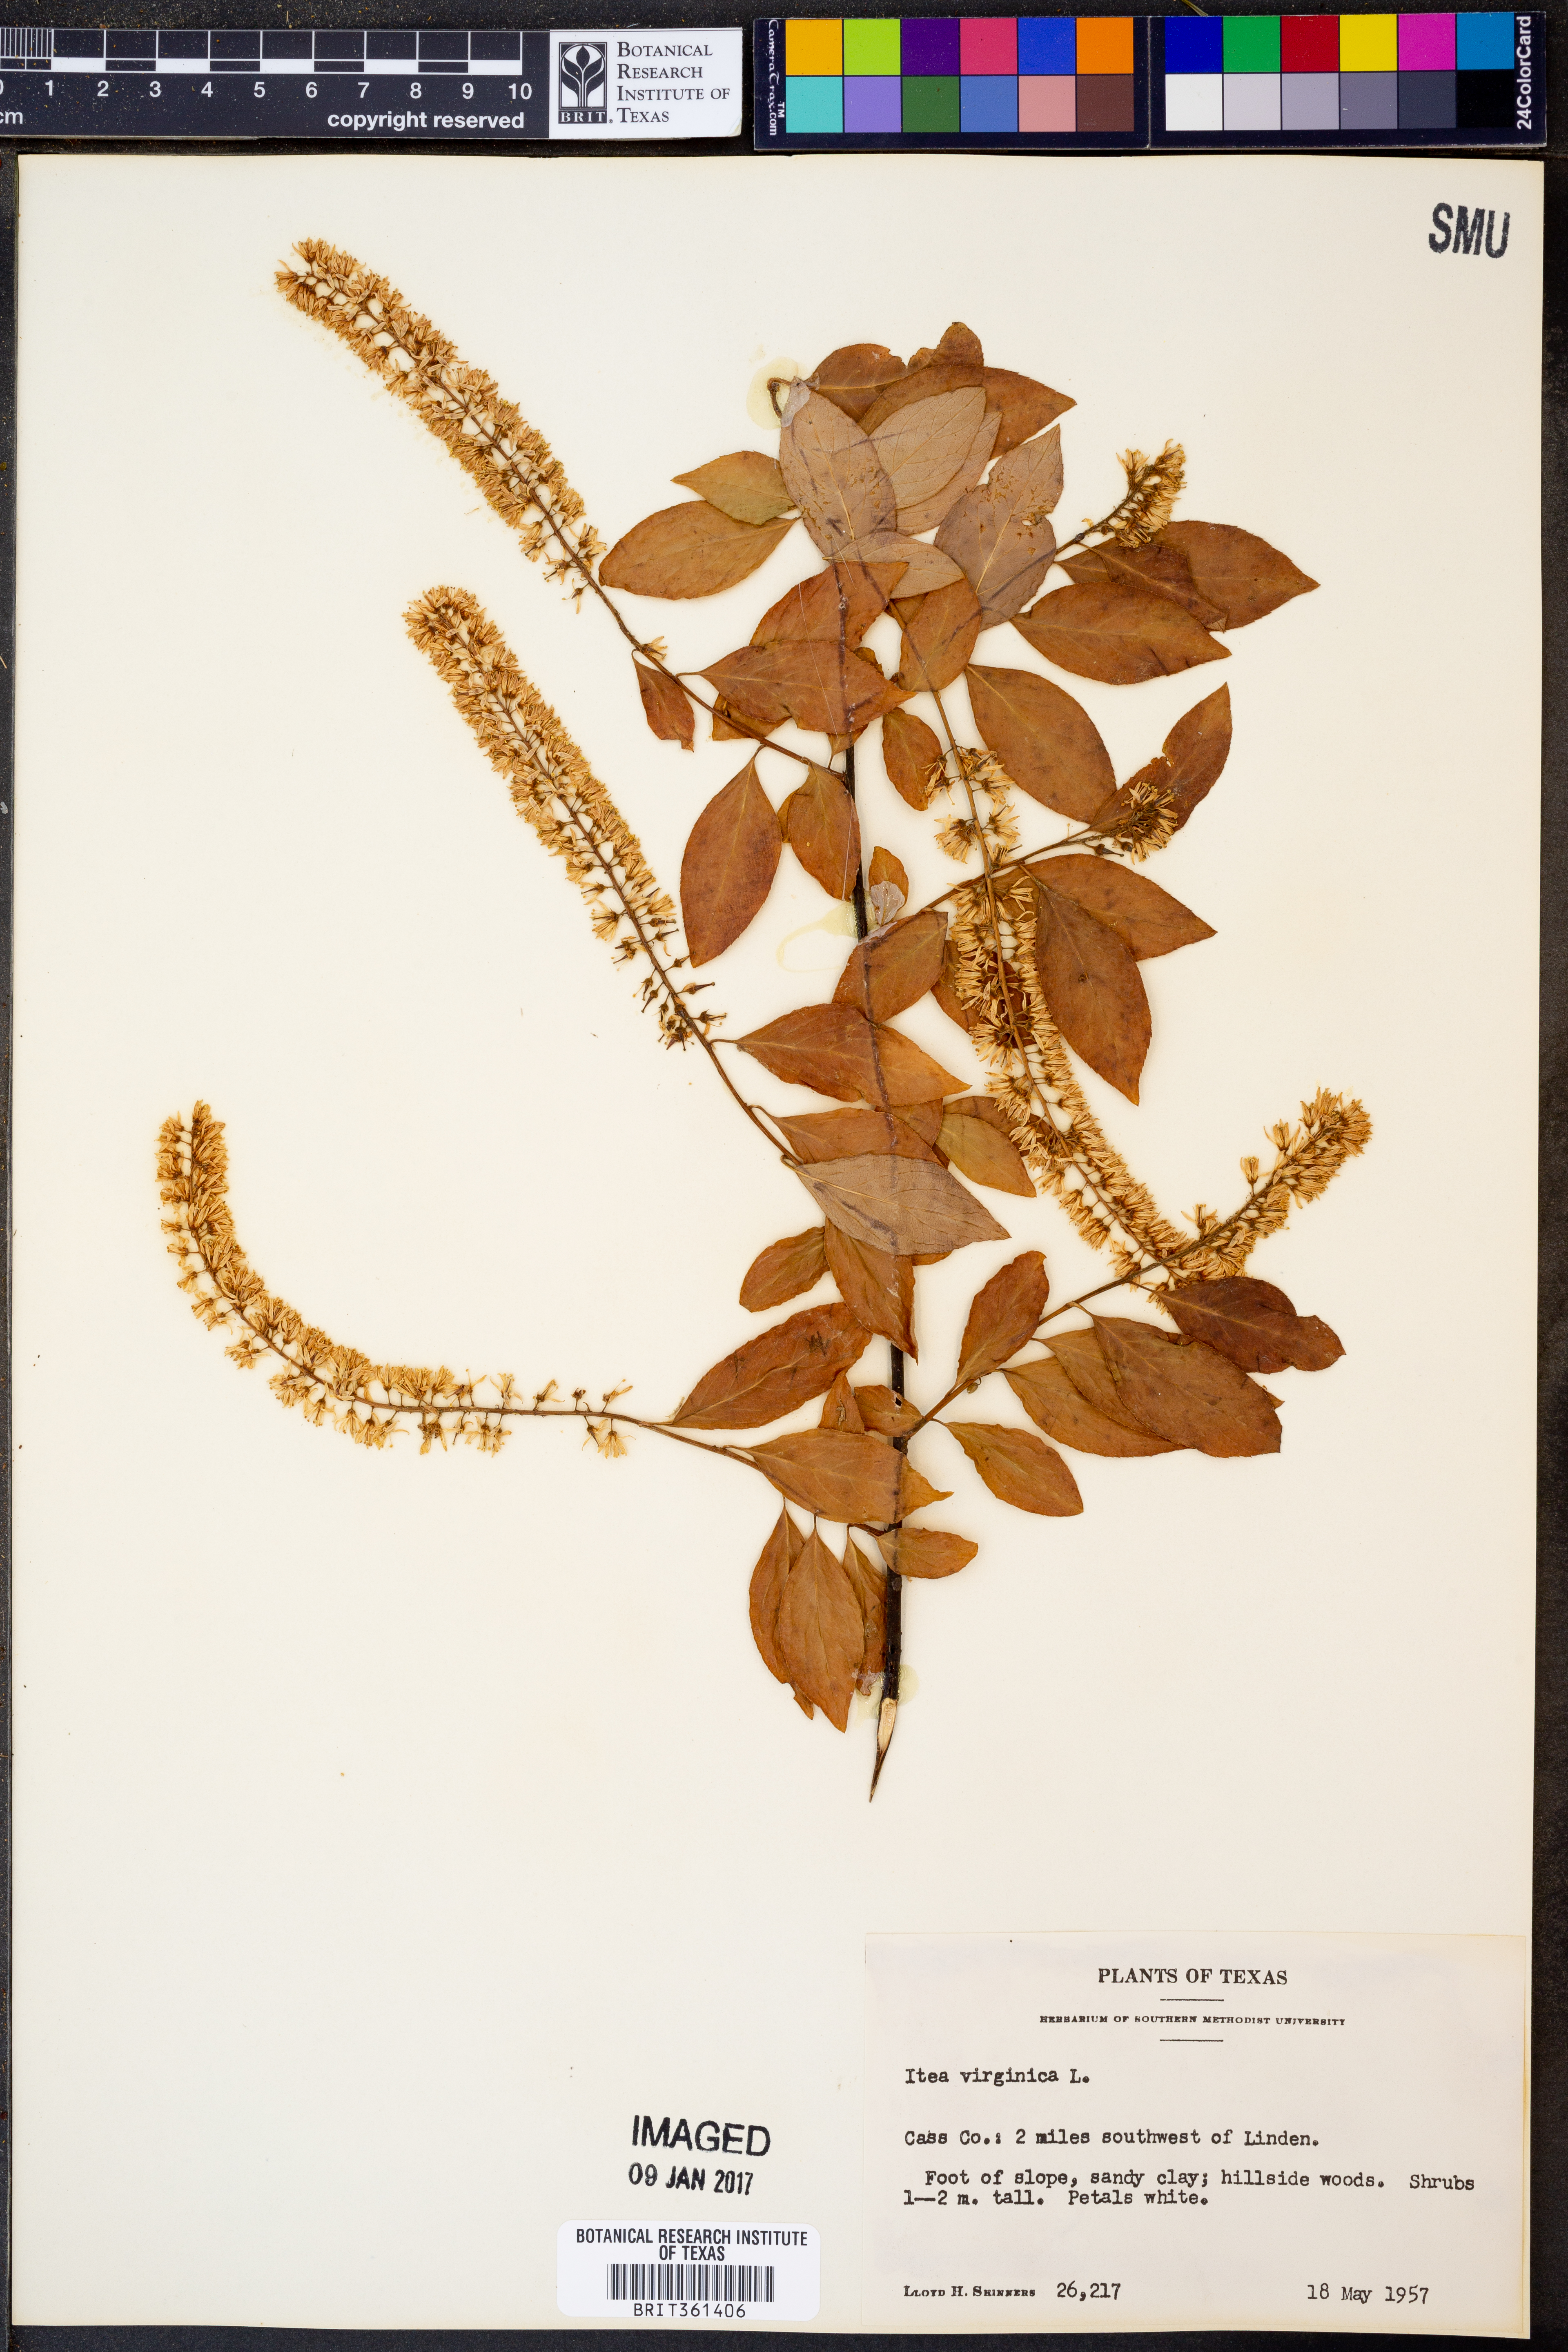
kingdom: Plantae
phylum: Tracheophyta
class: Magnoliopsida
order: Saxifragales
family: Iteaceae
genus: Itea
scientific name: Itea virginica
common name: Sweetspire
